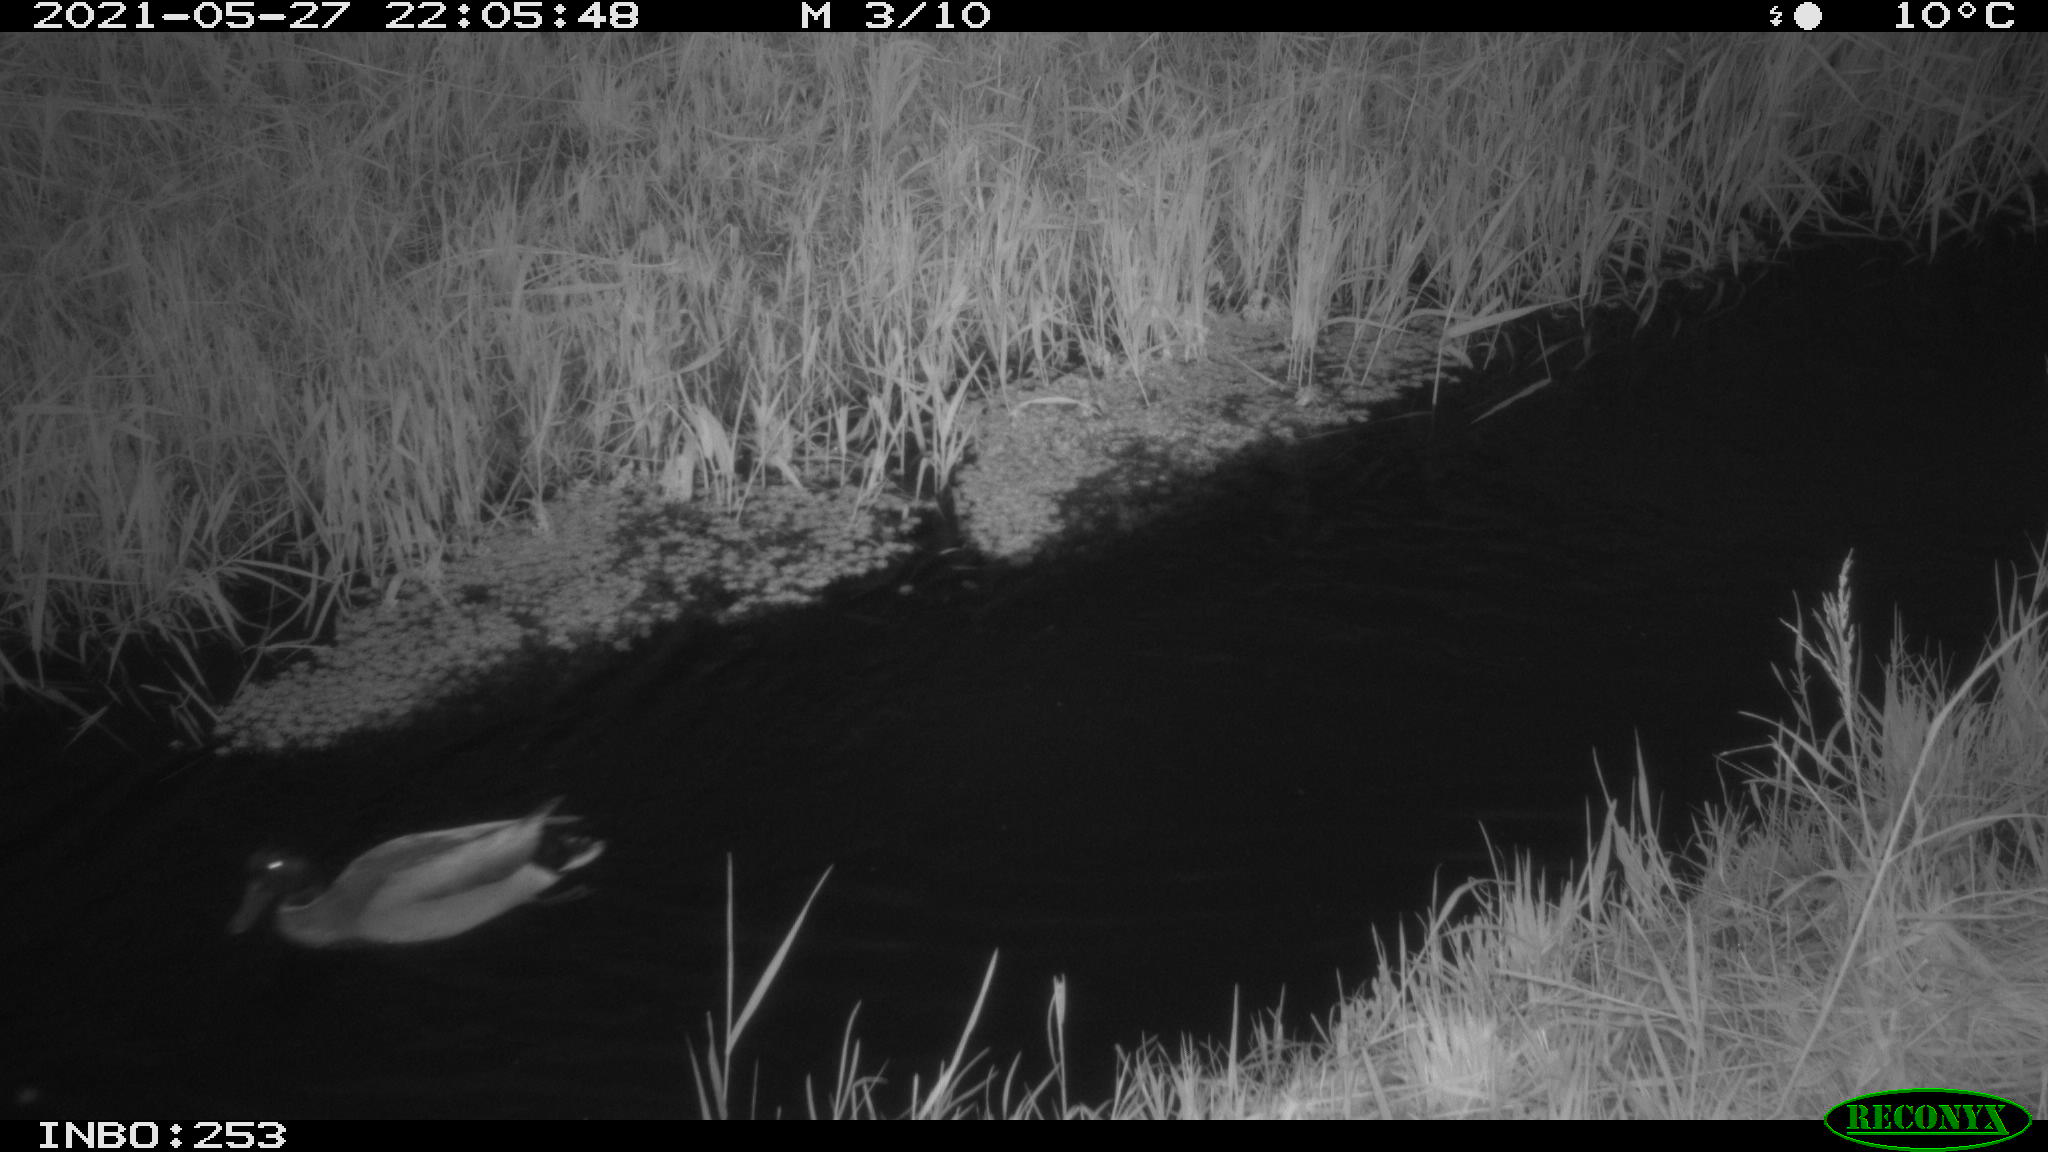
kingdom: Animalia
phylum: Chordata
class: Aves
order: Anseriformes
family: Anatidae
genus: Anas
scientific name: Anas
